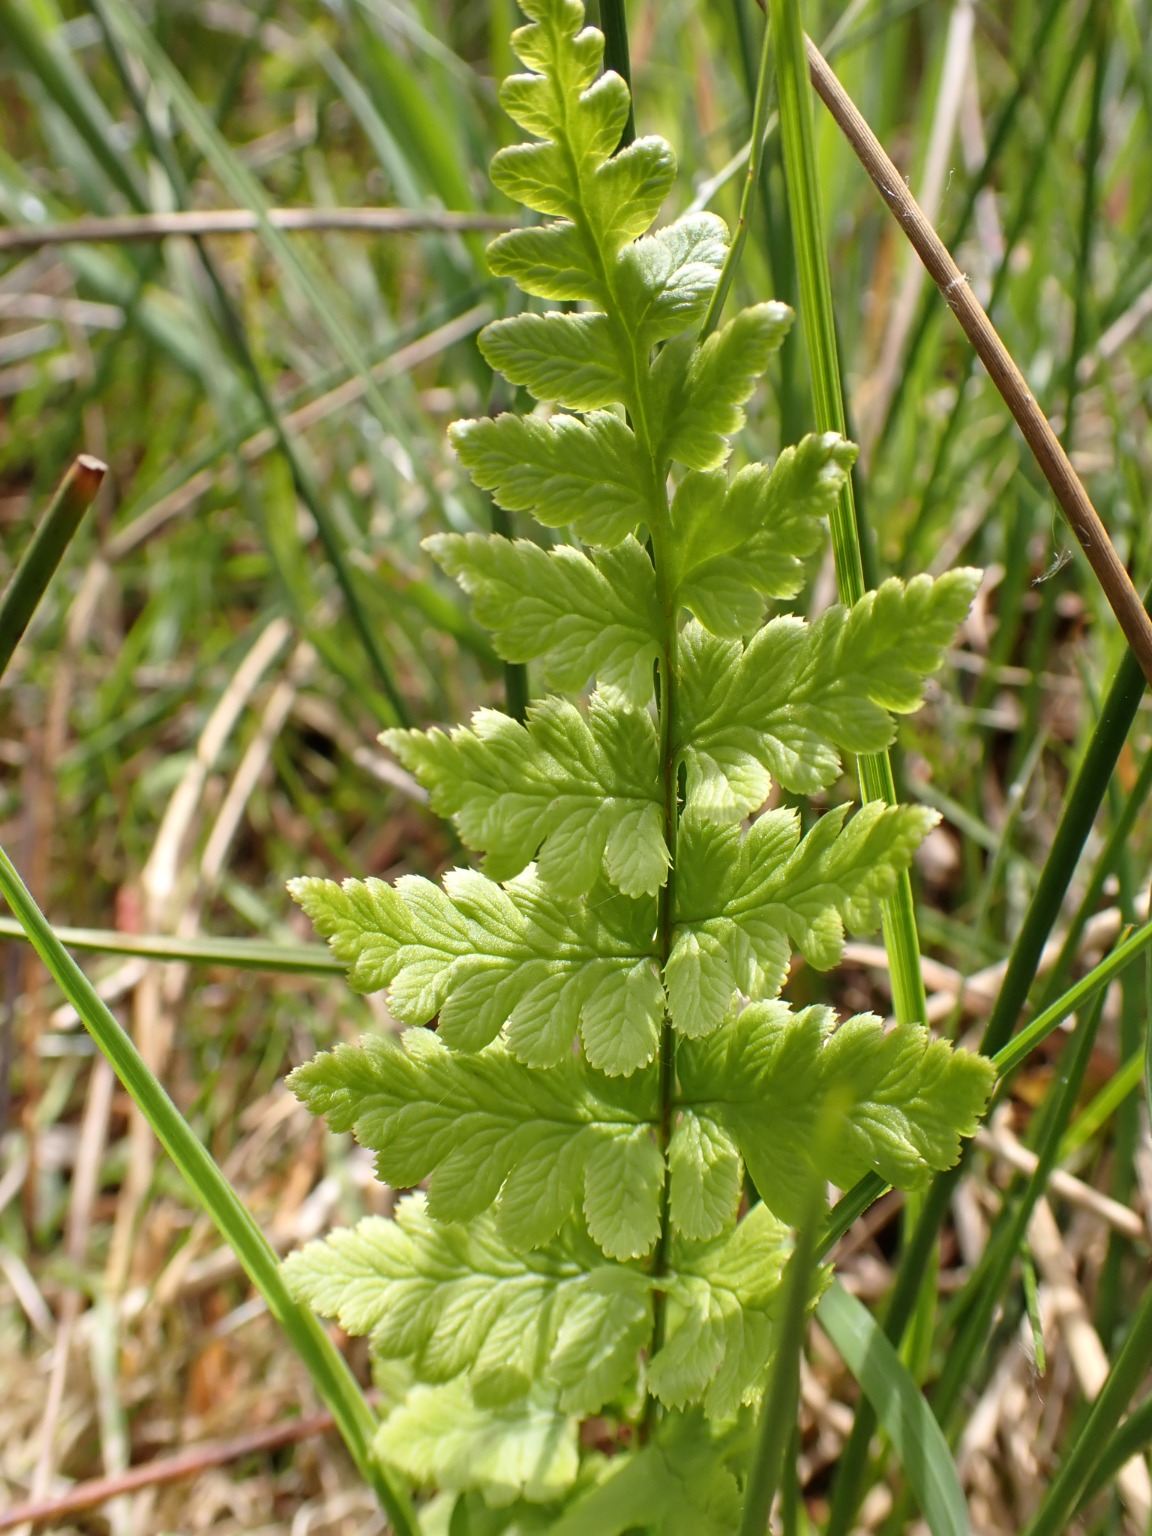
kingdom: Plantae
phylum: Tracheophyta
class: Polypodiopsida
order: Polypodiales
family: Dryopteridaceae
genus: Dryopteris
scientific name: Dryopteris cristata
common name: Butfinnet mangeløv
